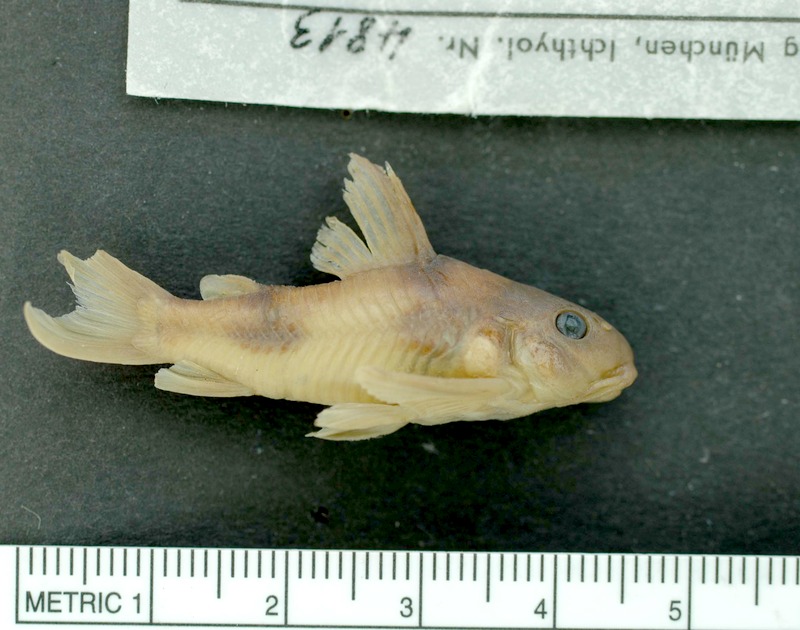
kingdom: Animalia
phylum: Chordata
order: Siluriformes
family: Callichthyidae
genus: Corydoras
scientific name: Corydoras ehrhardti
